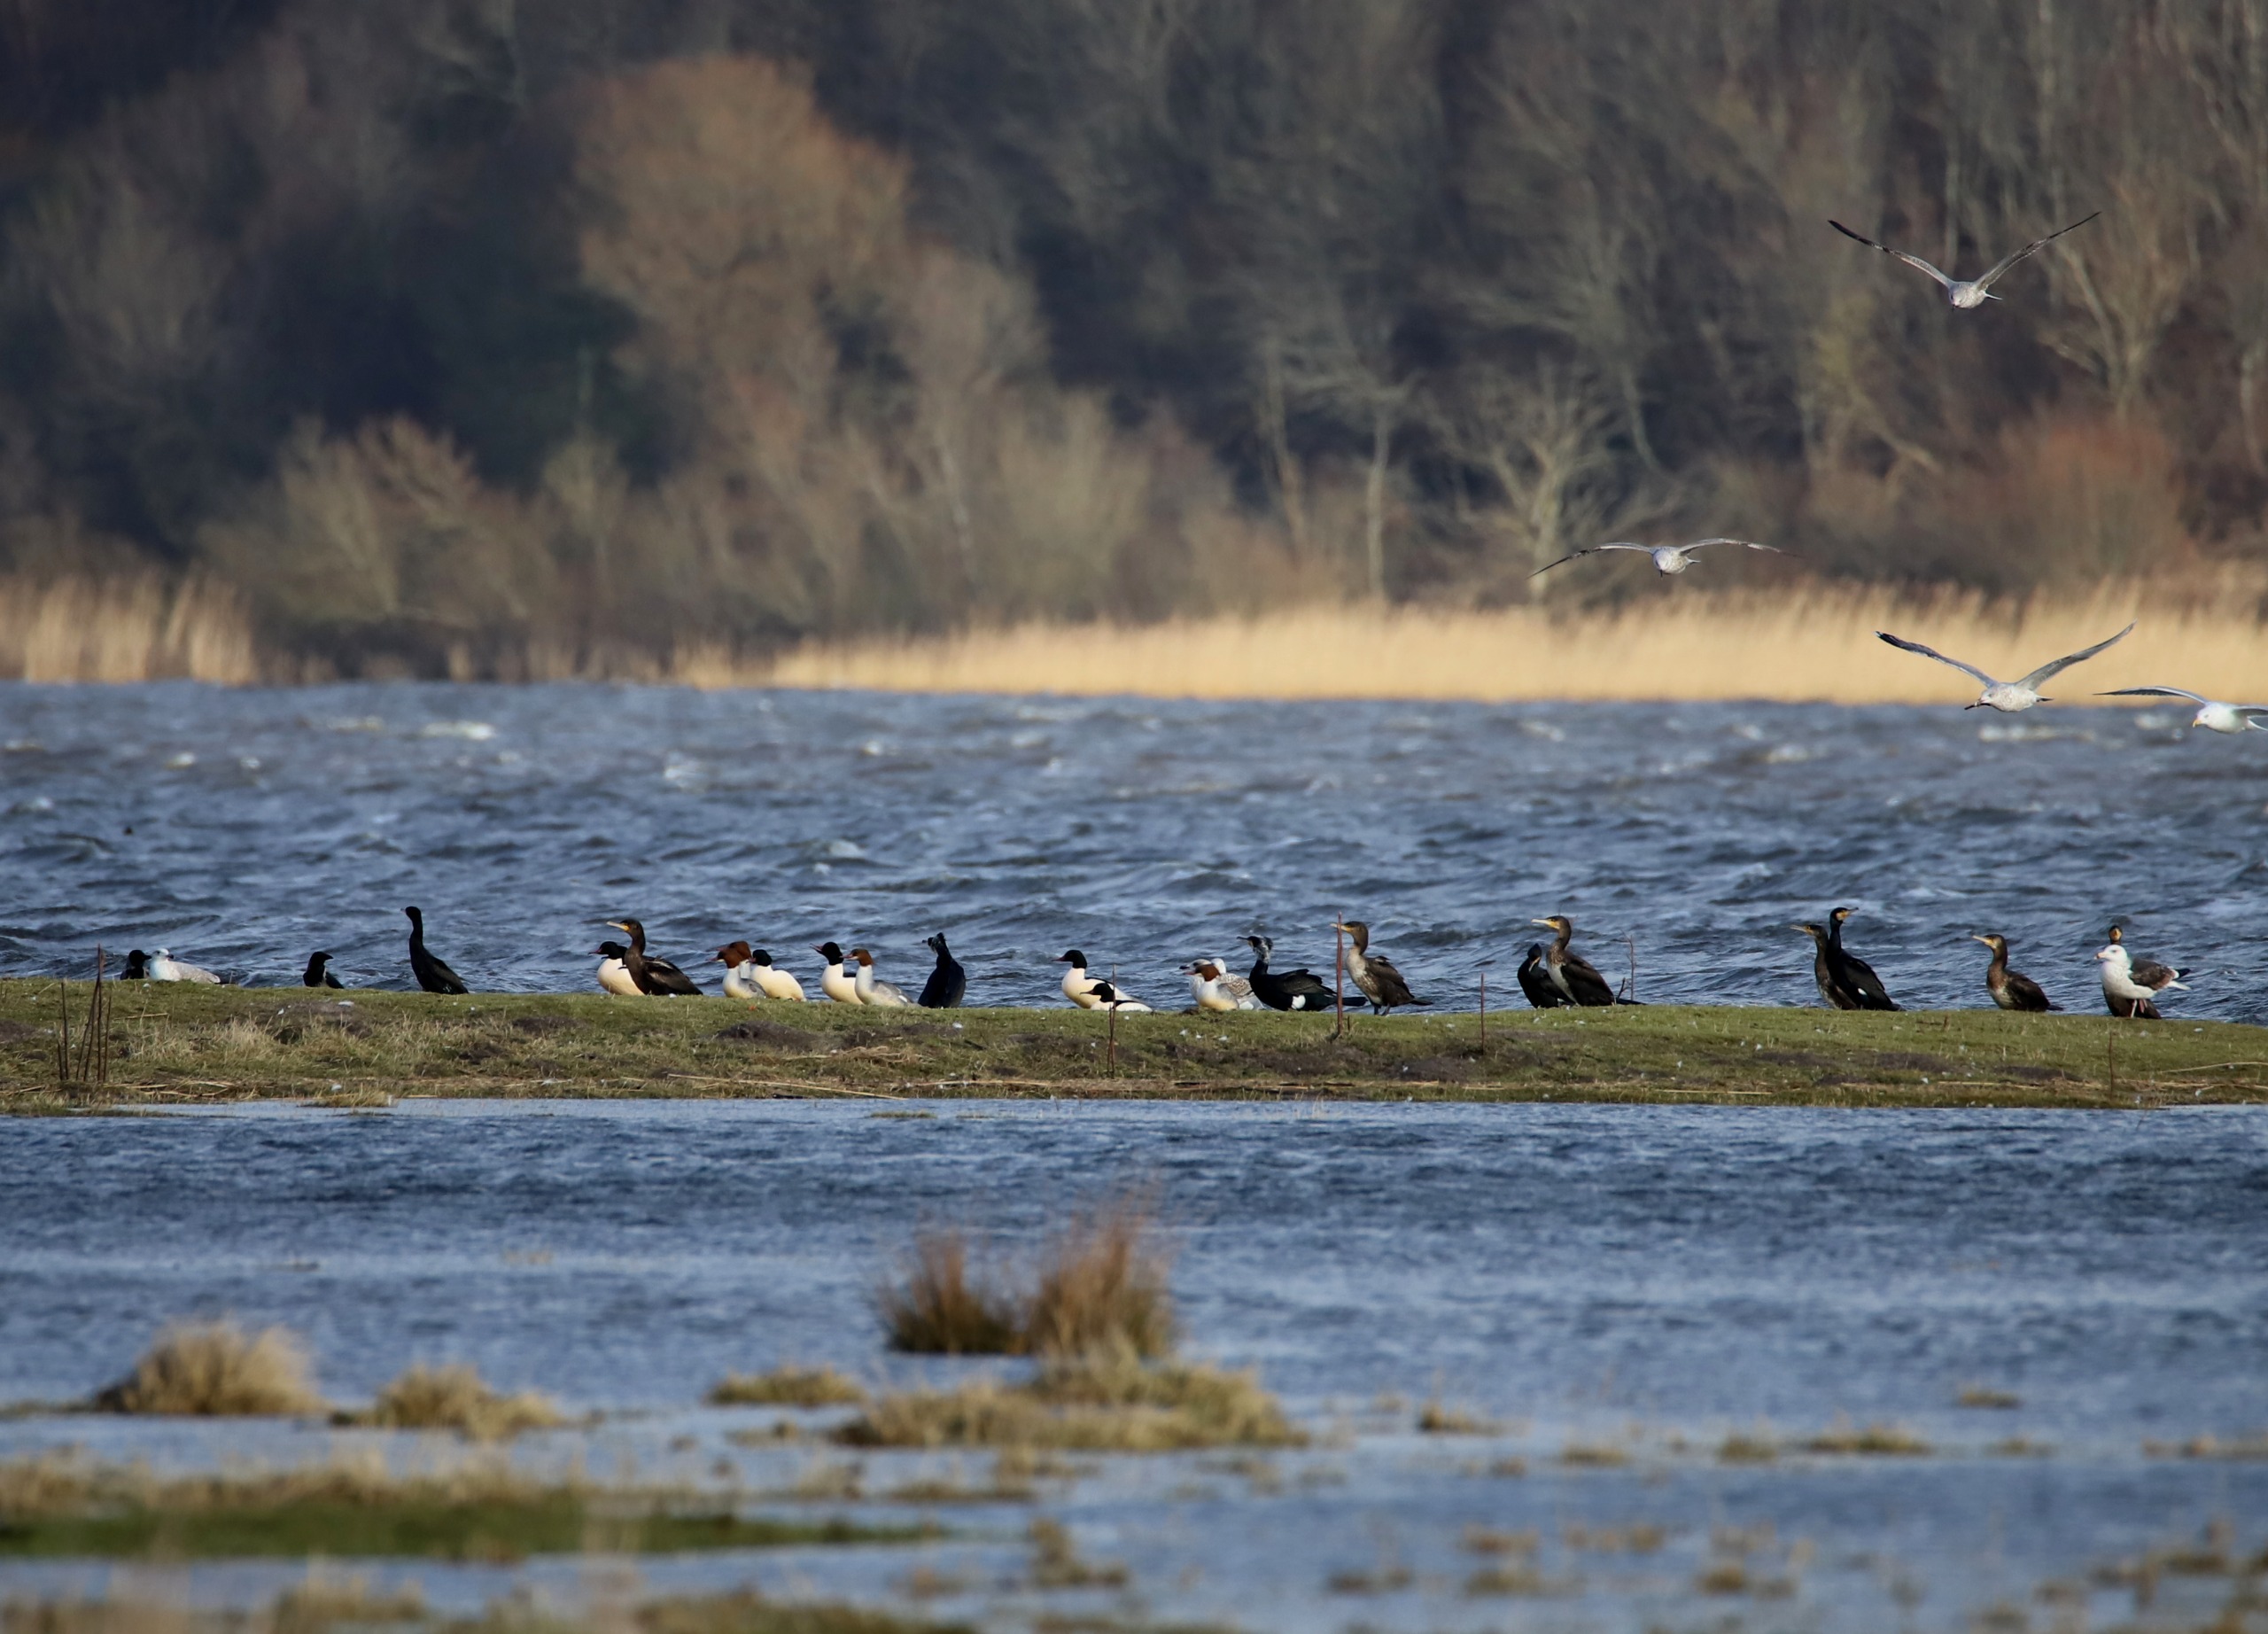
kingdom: Animalia
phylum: Chordata
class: Aves
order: Anseriformes
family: Anatidae
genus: Mergus
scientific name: Mergus merganser
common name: Stor skallesluger
